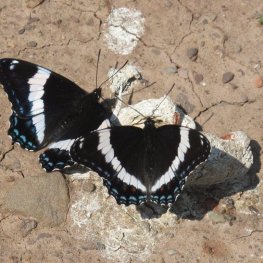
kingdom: Animalia
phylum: Arthropoda
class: Insecta
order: Lepidoptera
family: Nymphalidae
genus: Limenitis
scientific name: Limenitis arthemis
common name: Red-spotted Admiral
